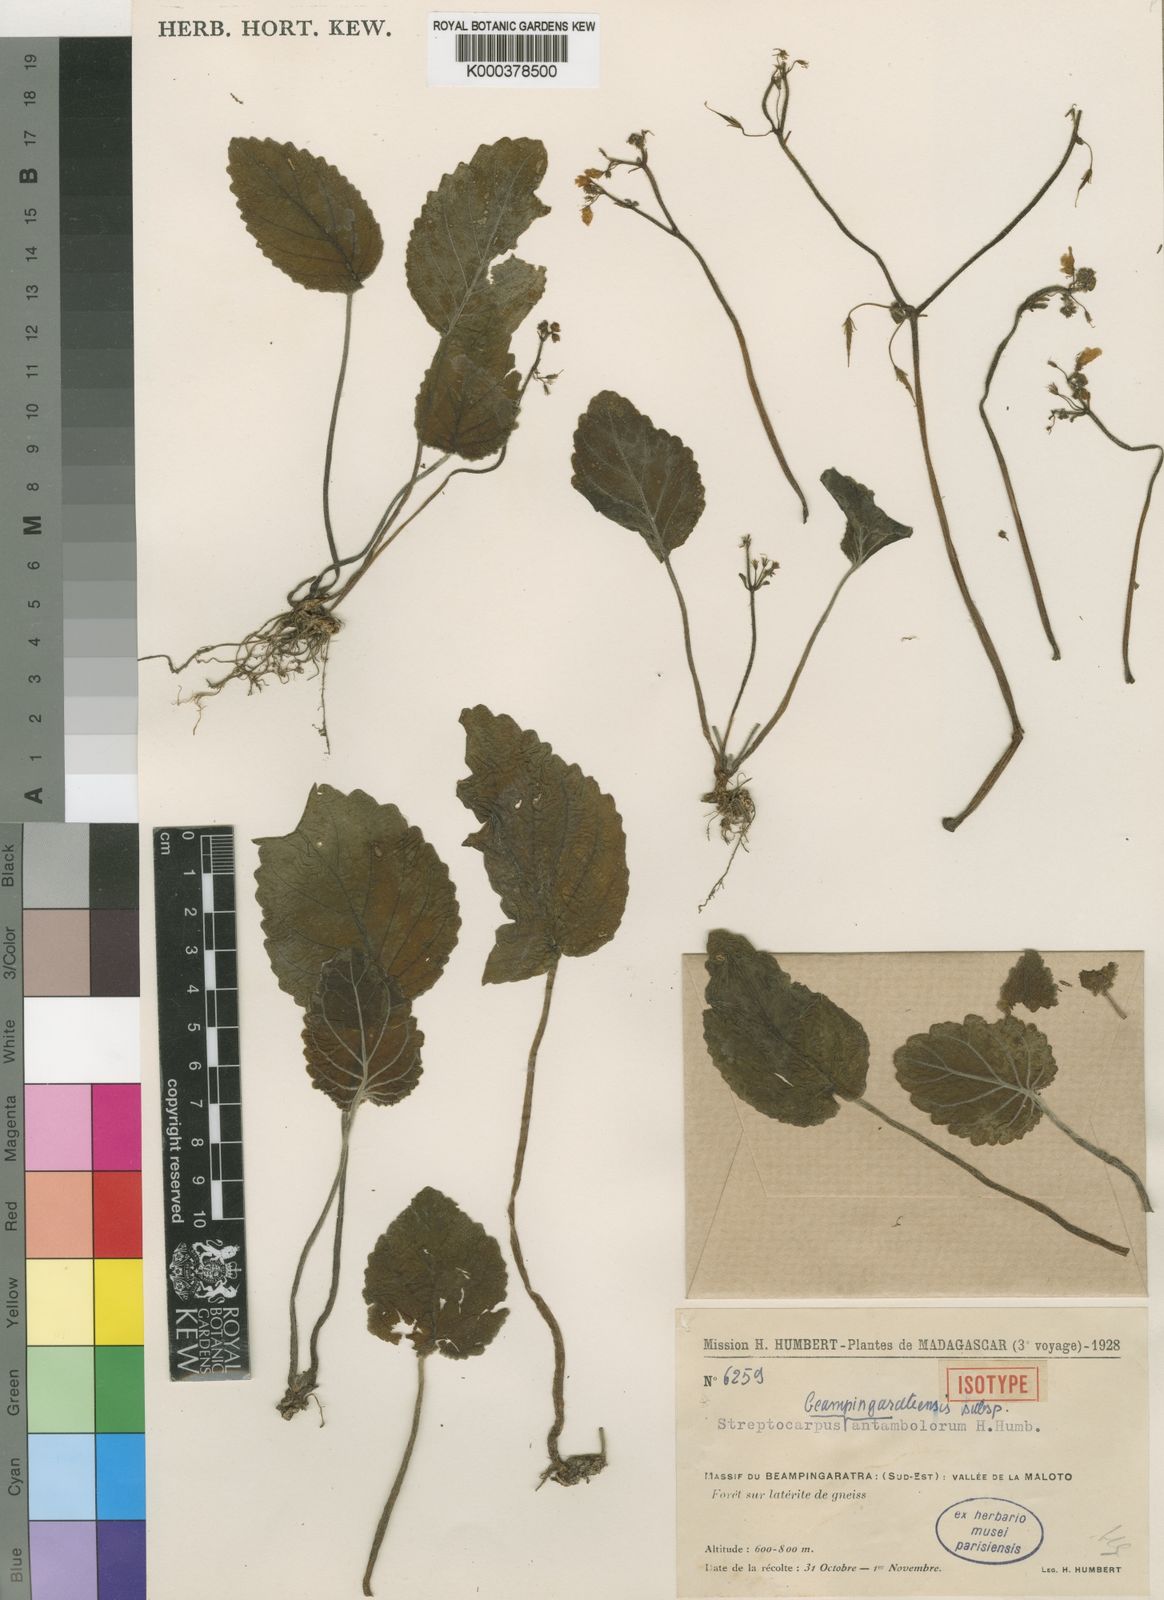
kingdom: Plantae
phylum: Tracheophyta
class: Magnoliopsida
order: Lamiales
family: Gesneriaceae
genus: Streptocarpus
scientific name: Streptocarpus
